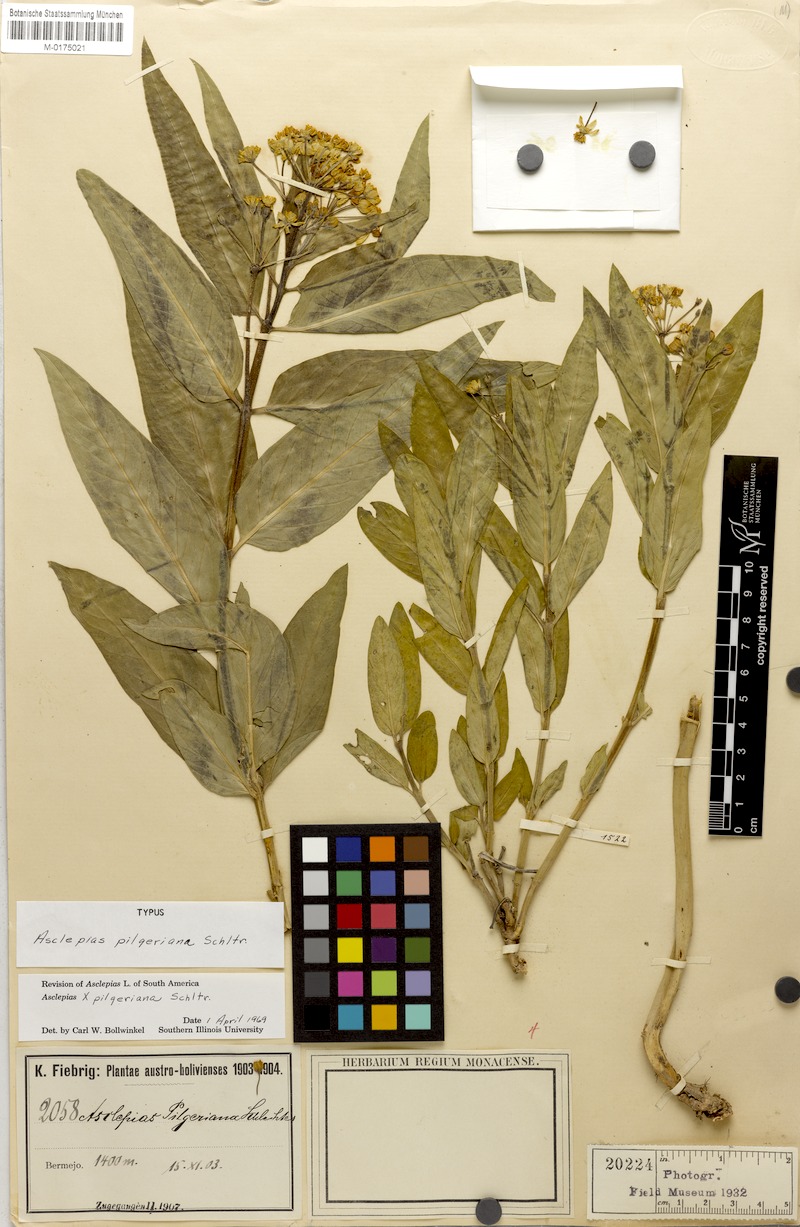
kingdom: Plantae
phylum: Tracheophyta
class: Magnoliopsida
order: Gentianales
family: Apocynaceae
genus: Asclepias
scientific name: Asclepias pilgeriana
